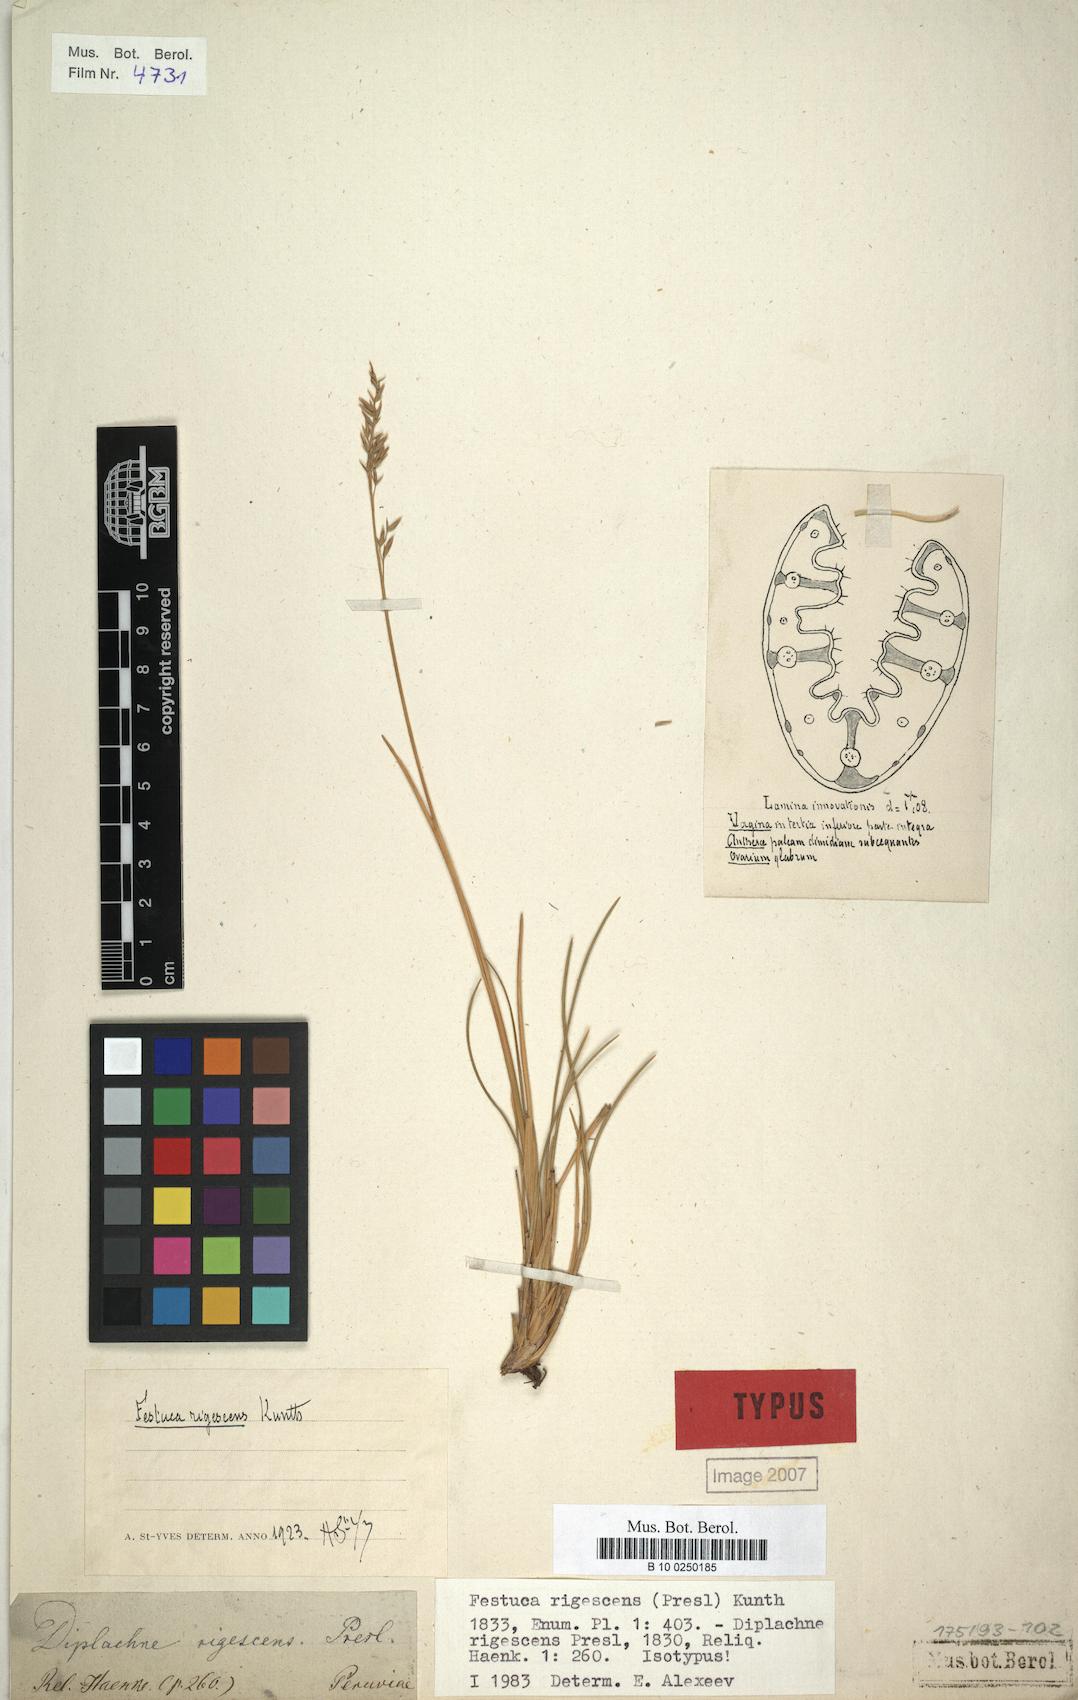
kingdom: Plantae
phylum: Tracheophyta
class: Liliopsida
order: Poales
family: Poaceae
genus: Festuca
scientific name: Festuca rigescens
